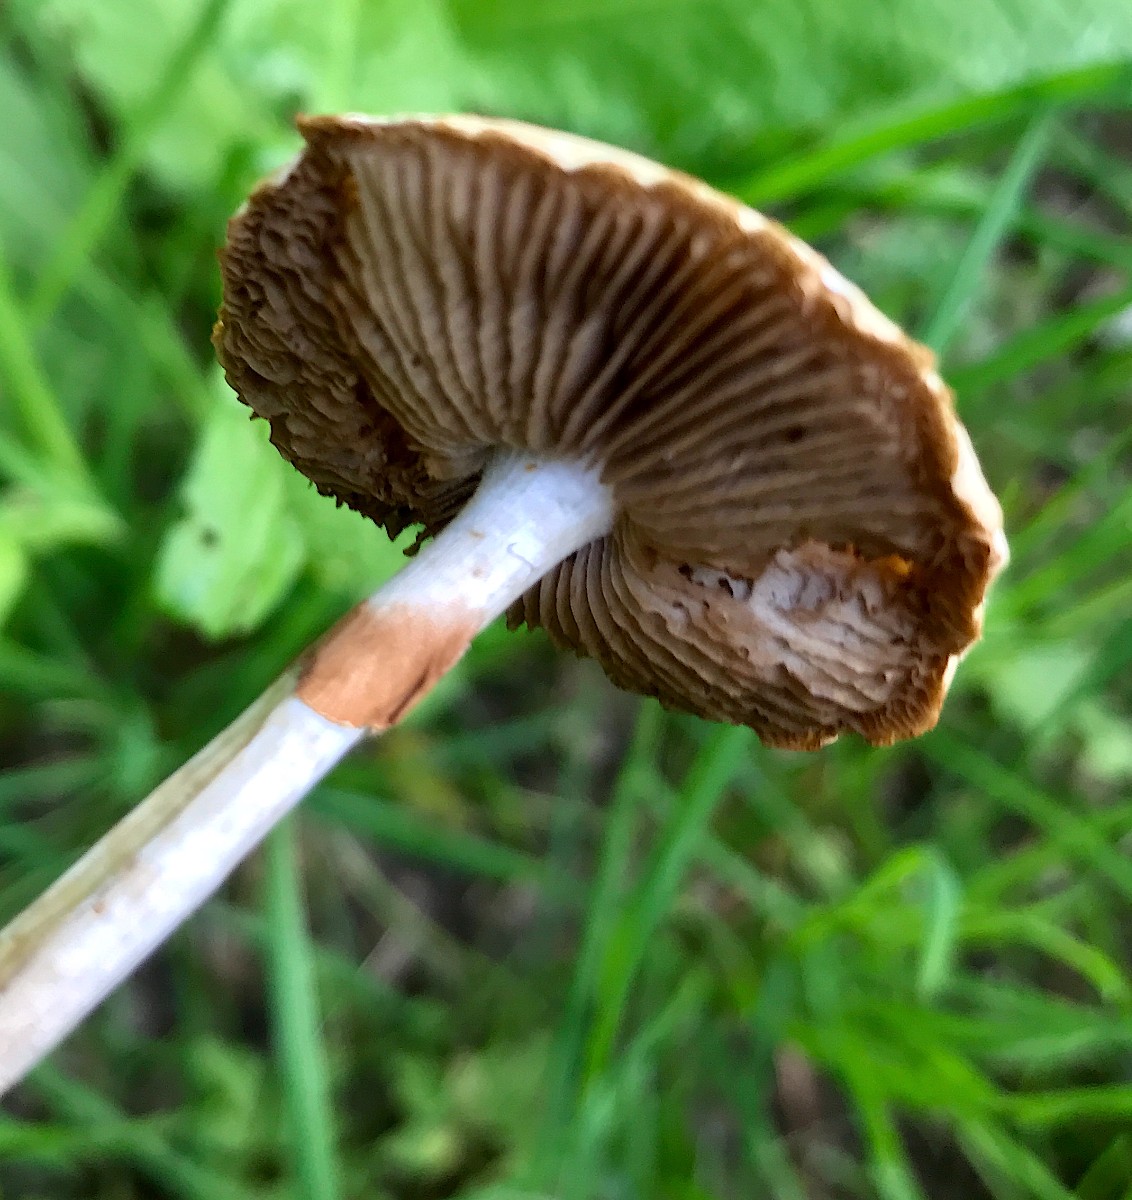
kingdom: Fungi
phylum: Basidiomycota
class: Agaricomycetes
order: Agaricales
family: Strophariaceae
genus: Agrocybe
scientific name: Agrocybe
